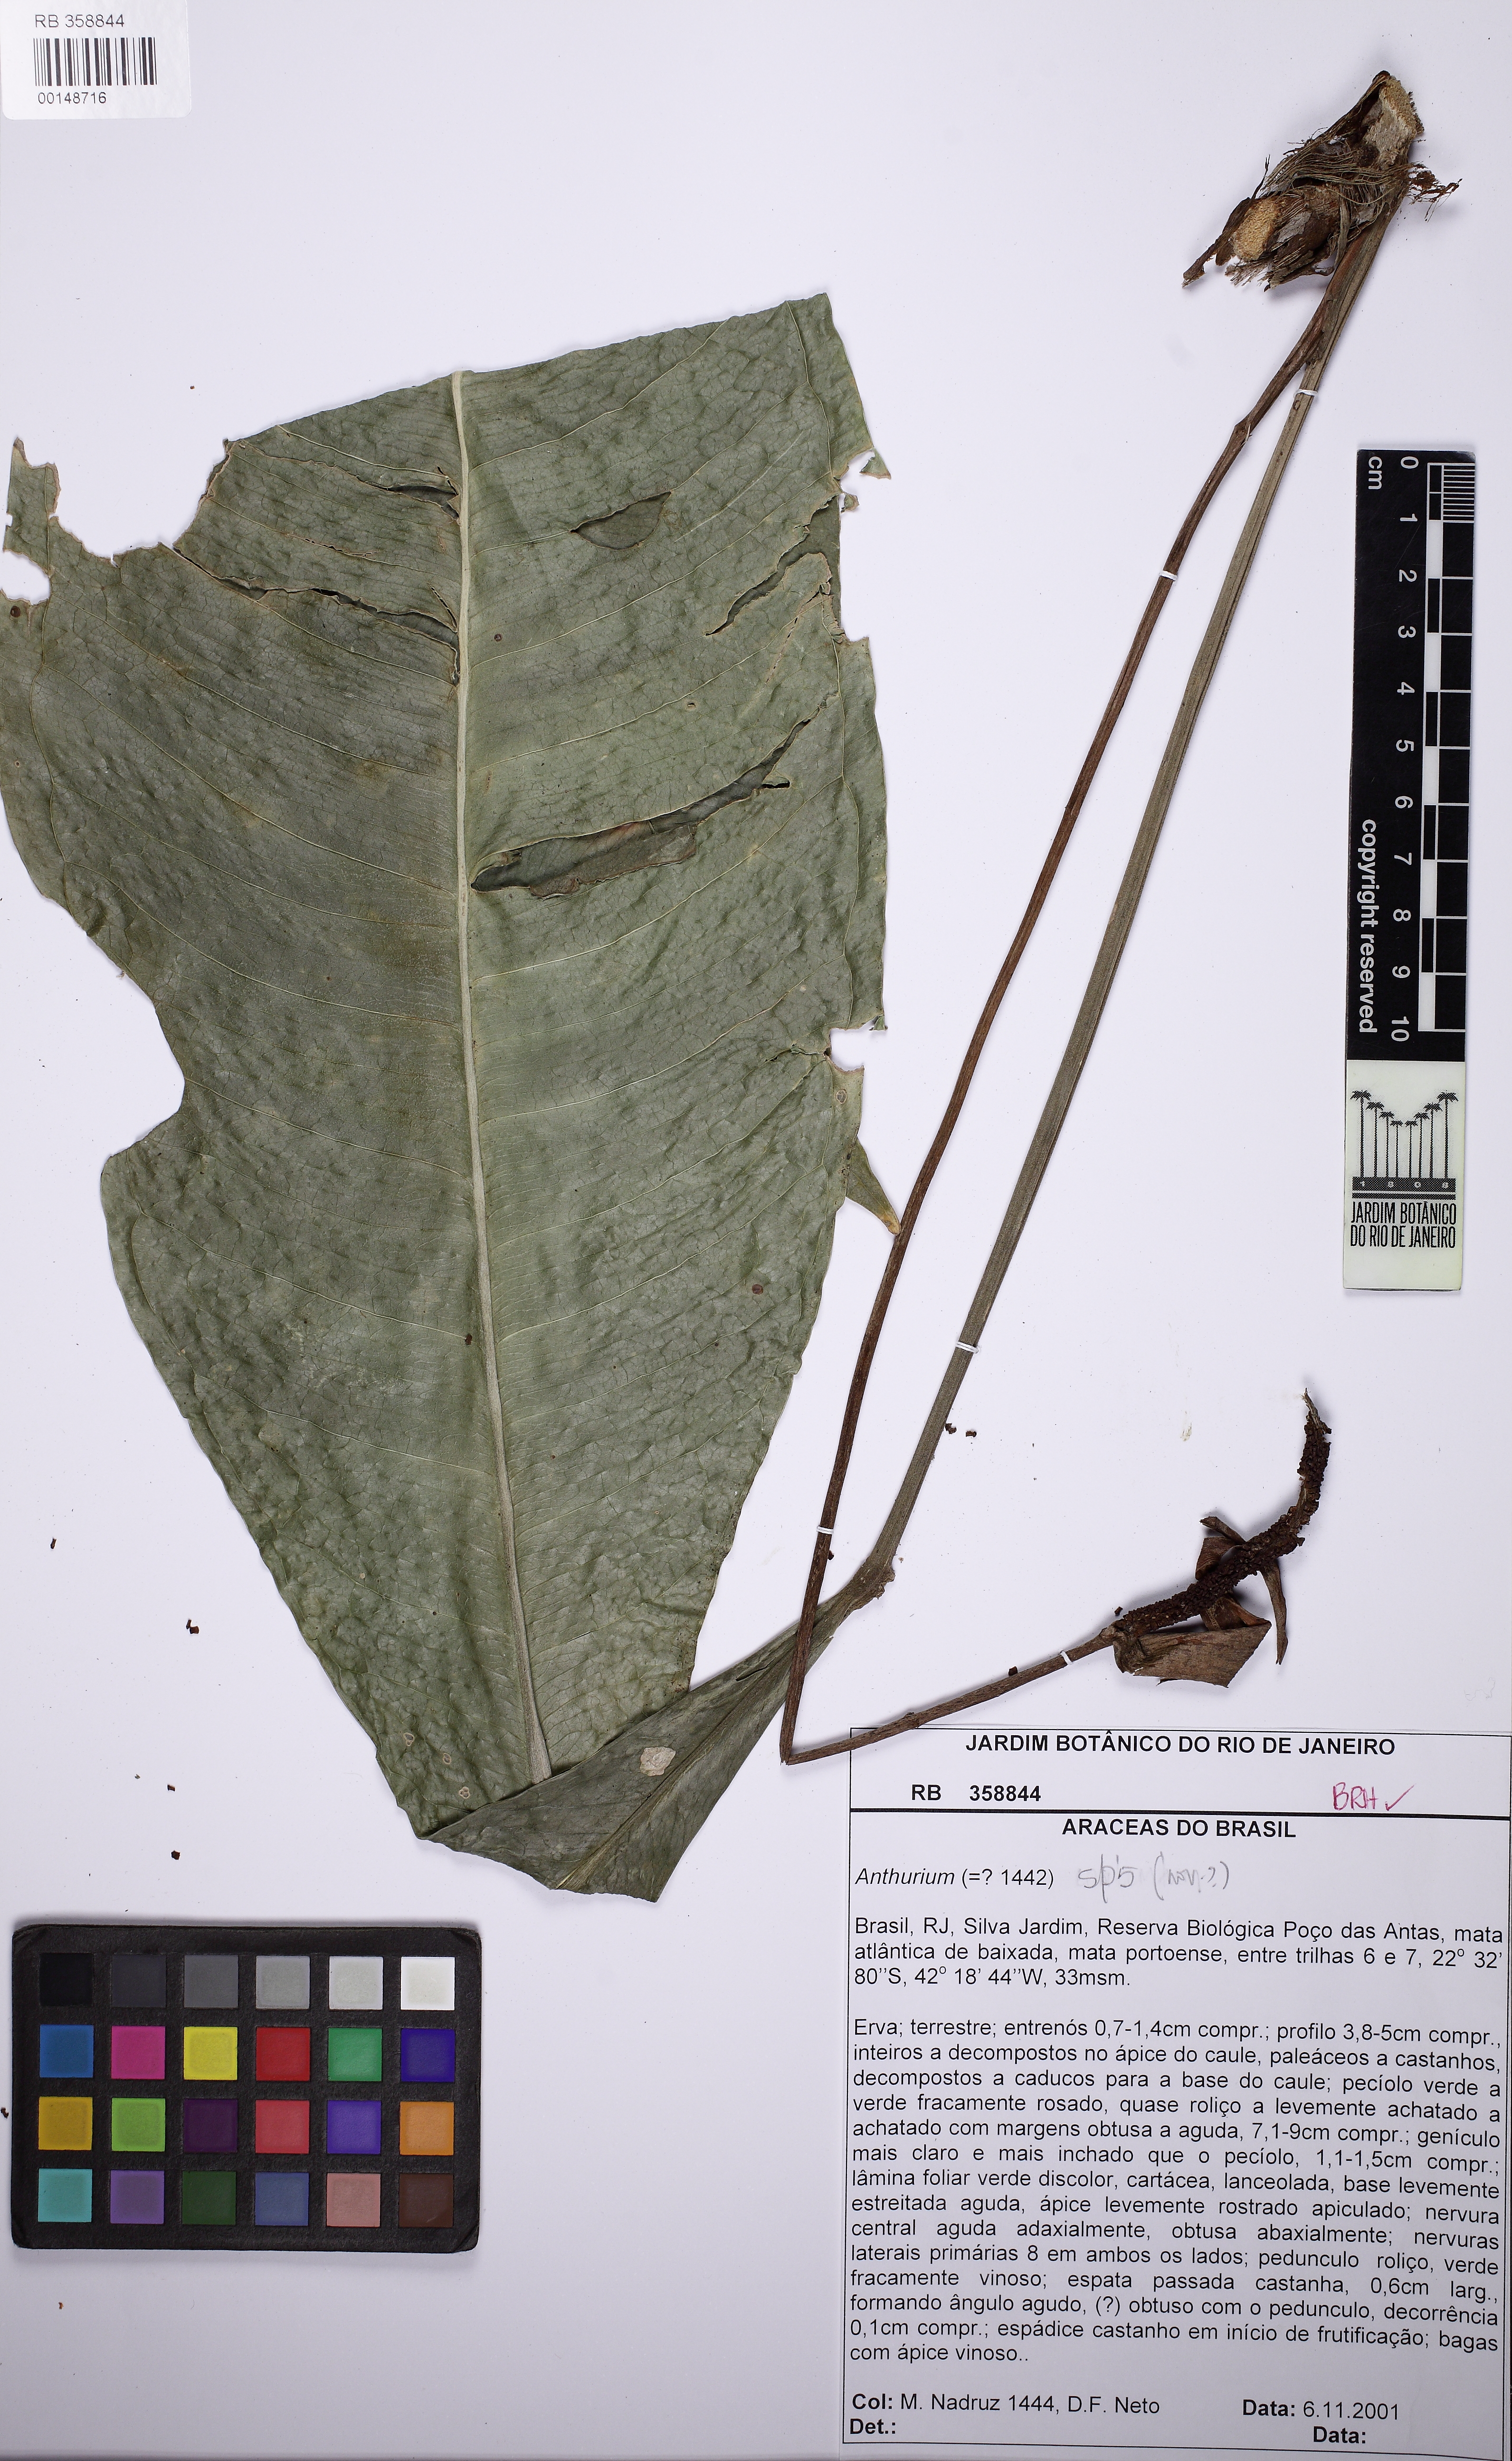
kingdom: Plantae
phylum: Tracheophyta
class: Liliopsida
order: Alismatales
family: Araceae
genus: Anthurium
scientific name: Anthurium
